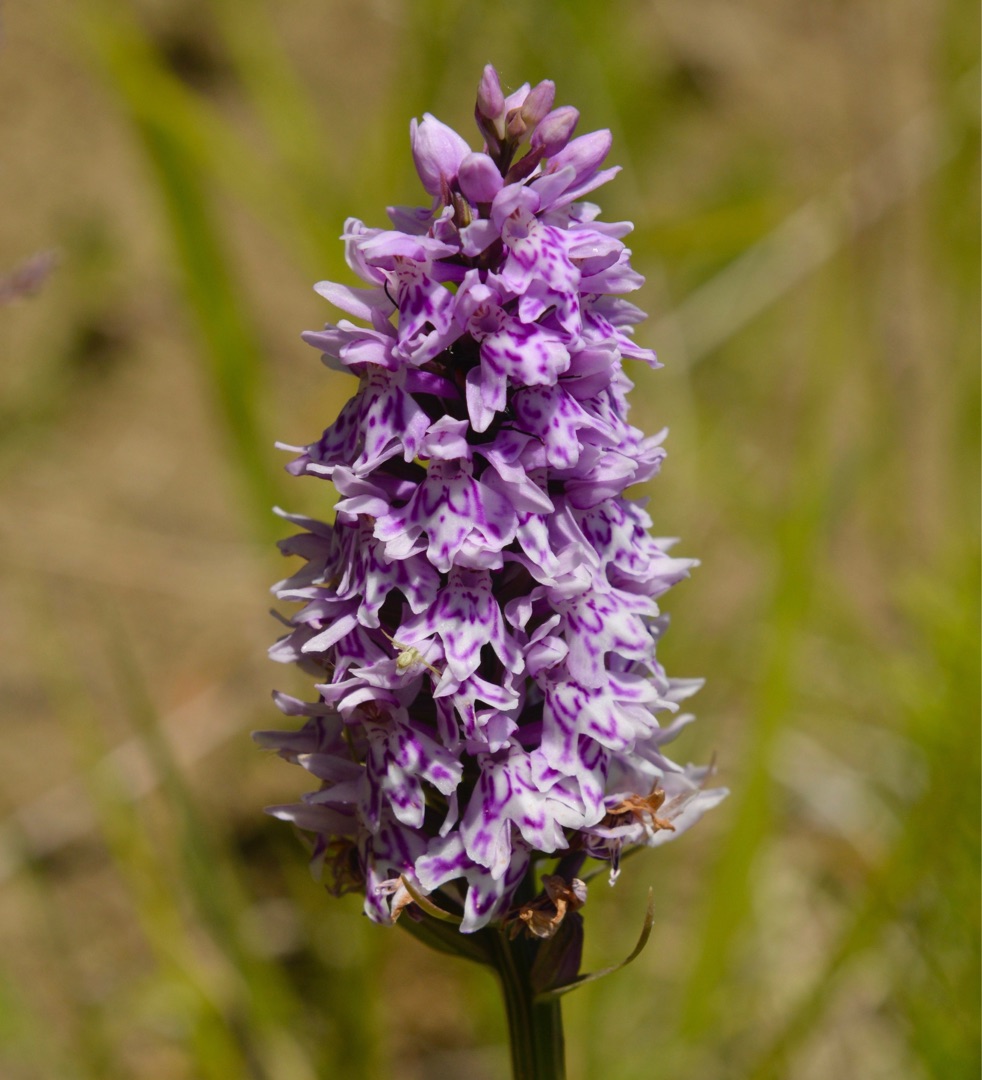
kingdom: Plantae
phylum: Tracheophyta
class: Liliopsida
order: Asparagales
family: Orchidaceae
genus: Dactylorhiza
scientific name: Dactylorhiza maculata
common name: Skov-gøgeurt
